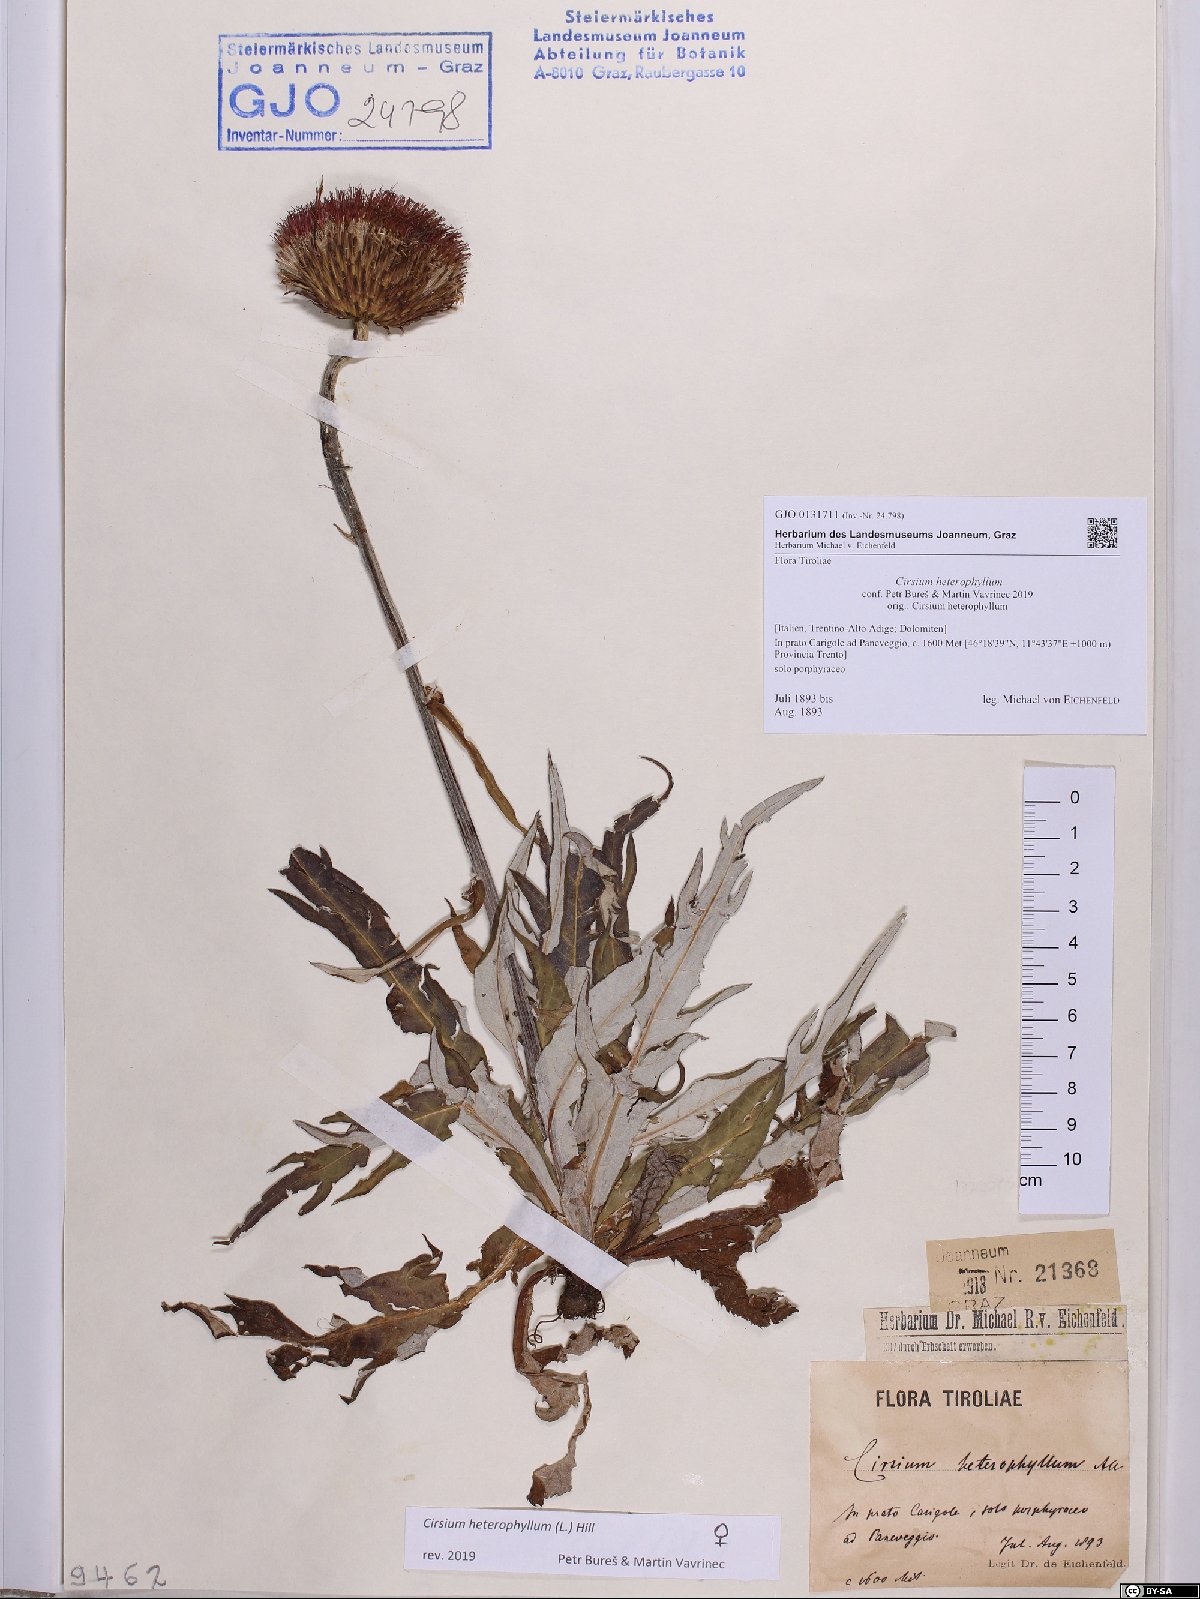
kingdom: Plantae
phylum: Tracheophyta
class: Magnoliopsida
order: Asterales
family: Asteraceae
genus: Cirsium
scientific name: Cirsium heterophyllum
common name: Melancholy thistle
